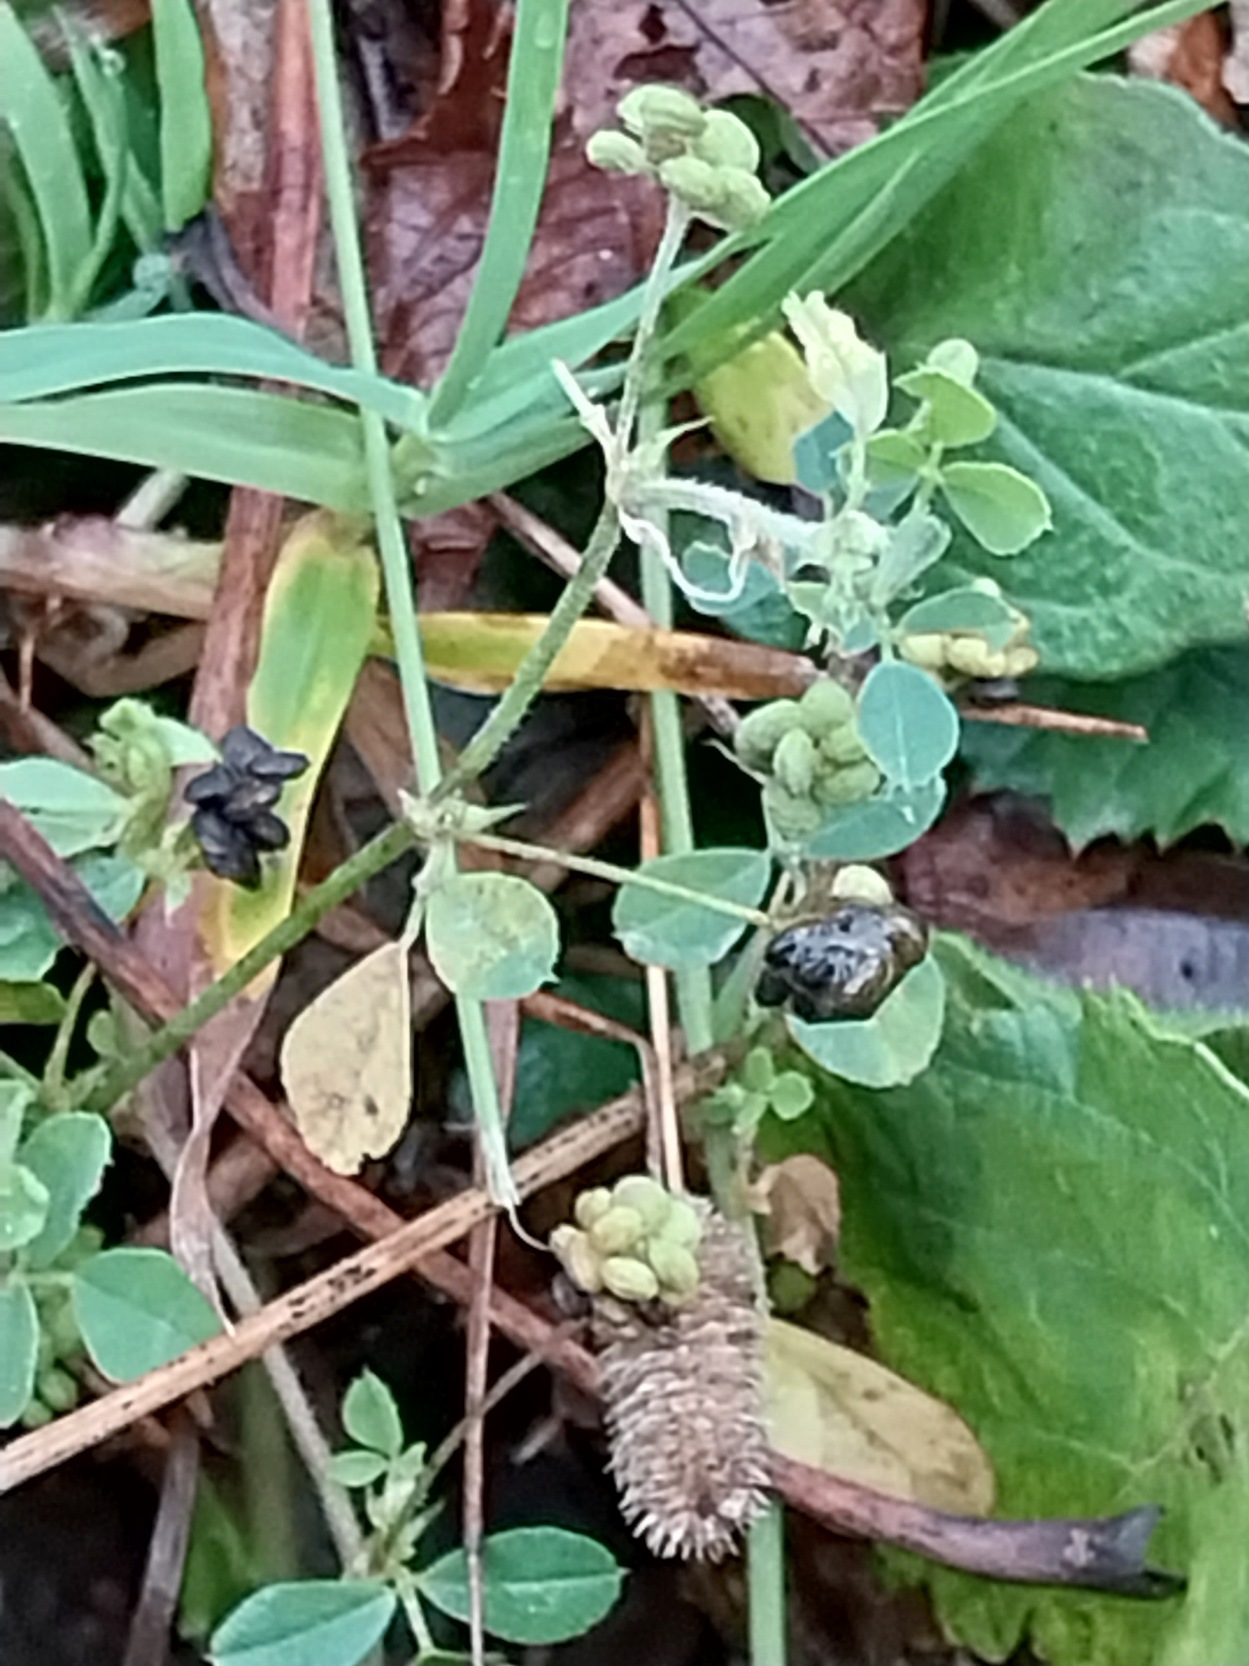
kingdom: Plantae
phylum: Tracheophyta
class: Magnoliopsida
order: Fabales
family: Fabaceae
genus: Medicago
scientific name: Medicago lupulina
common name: Humle-sneglebælg
